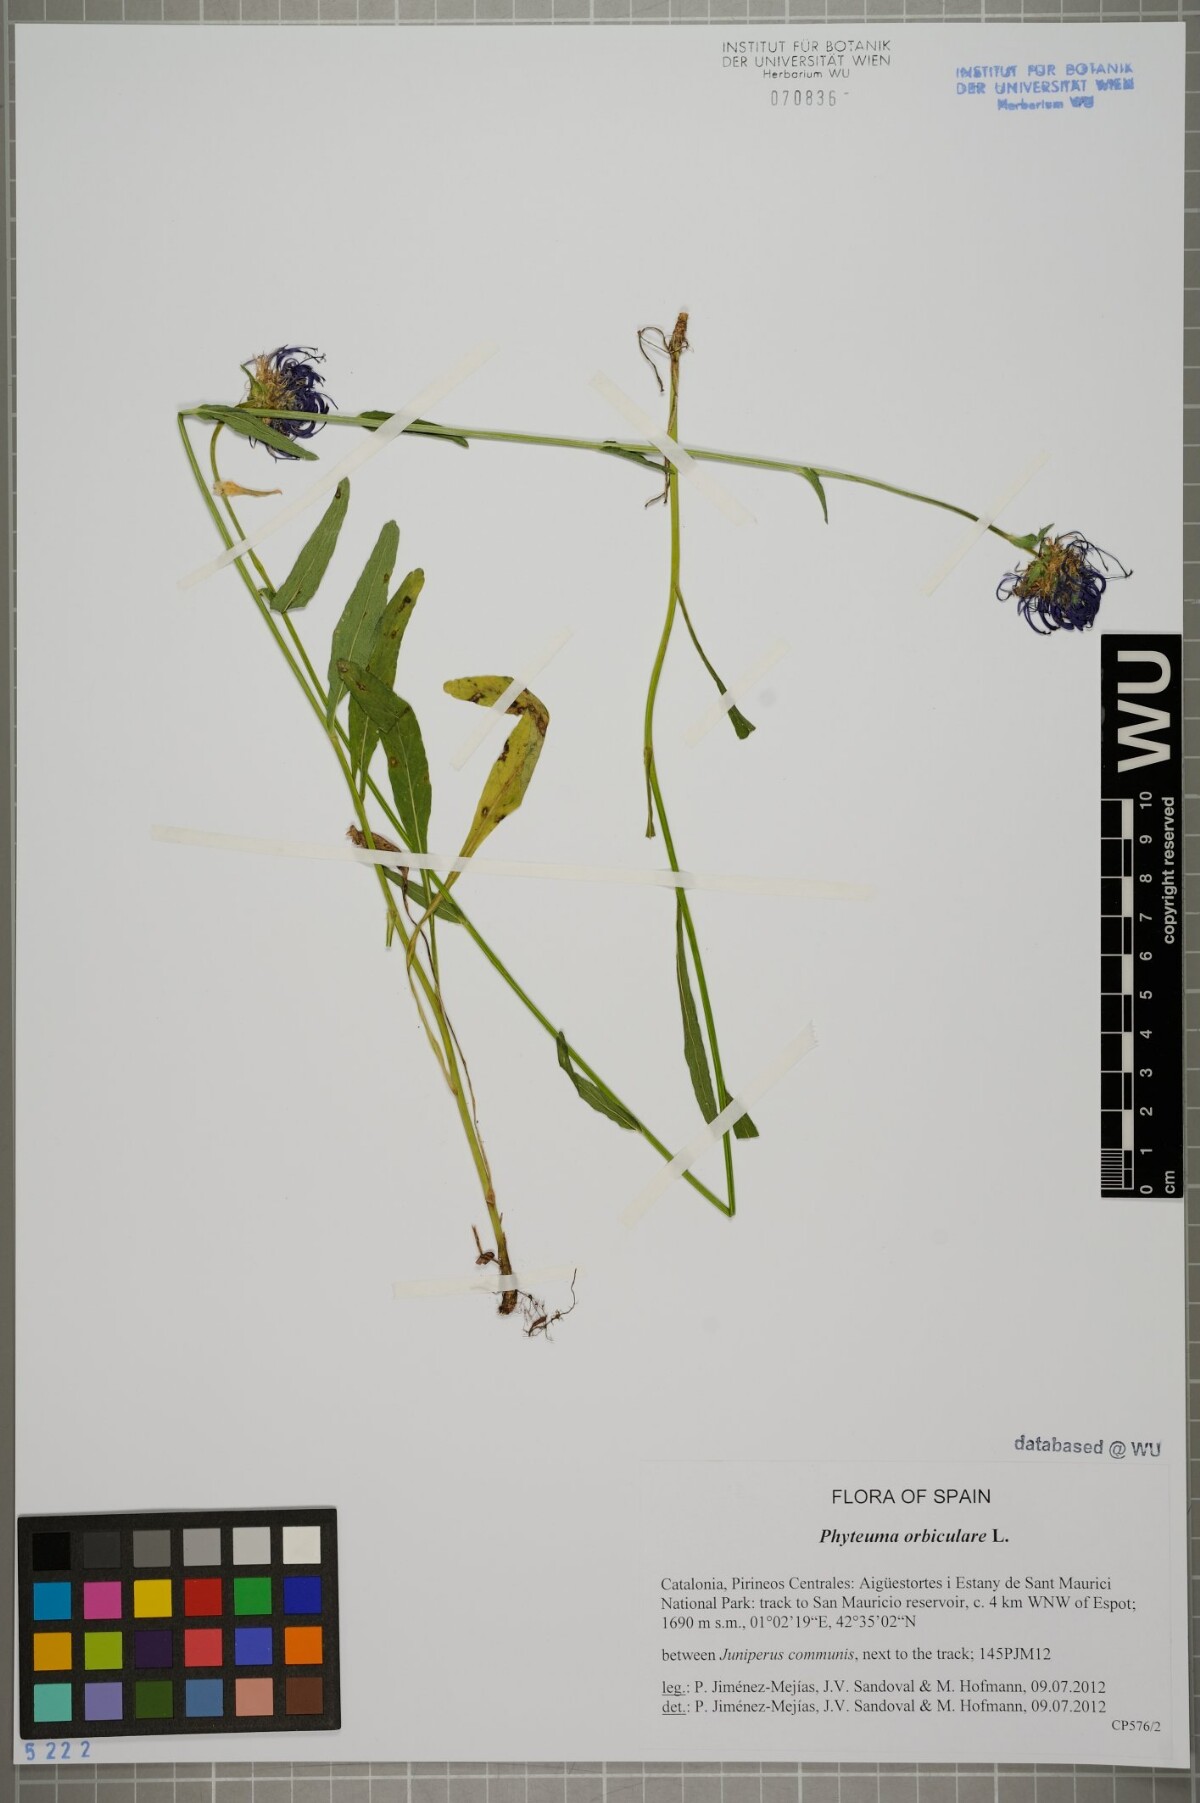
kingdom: Plantae
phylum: Tracheophyta
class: Magnoliopsida
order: Asterales
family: Campanulaceae
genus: Phyteuma
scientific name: Phyteuma orbiculare
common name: Round-headed rampion
